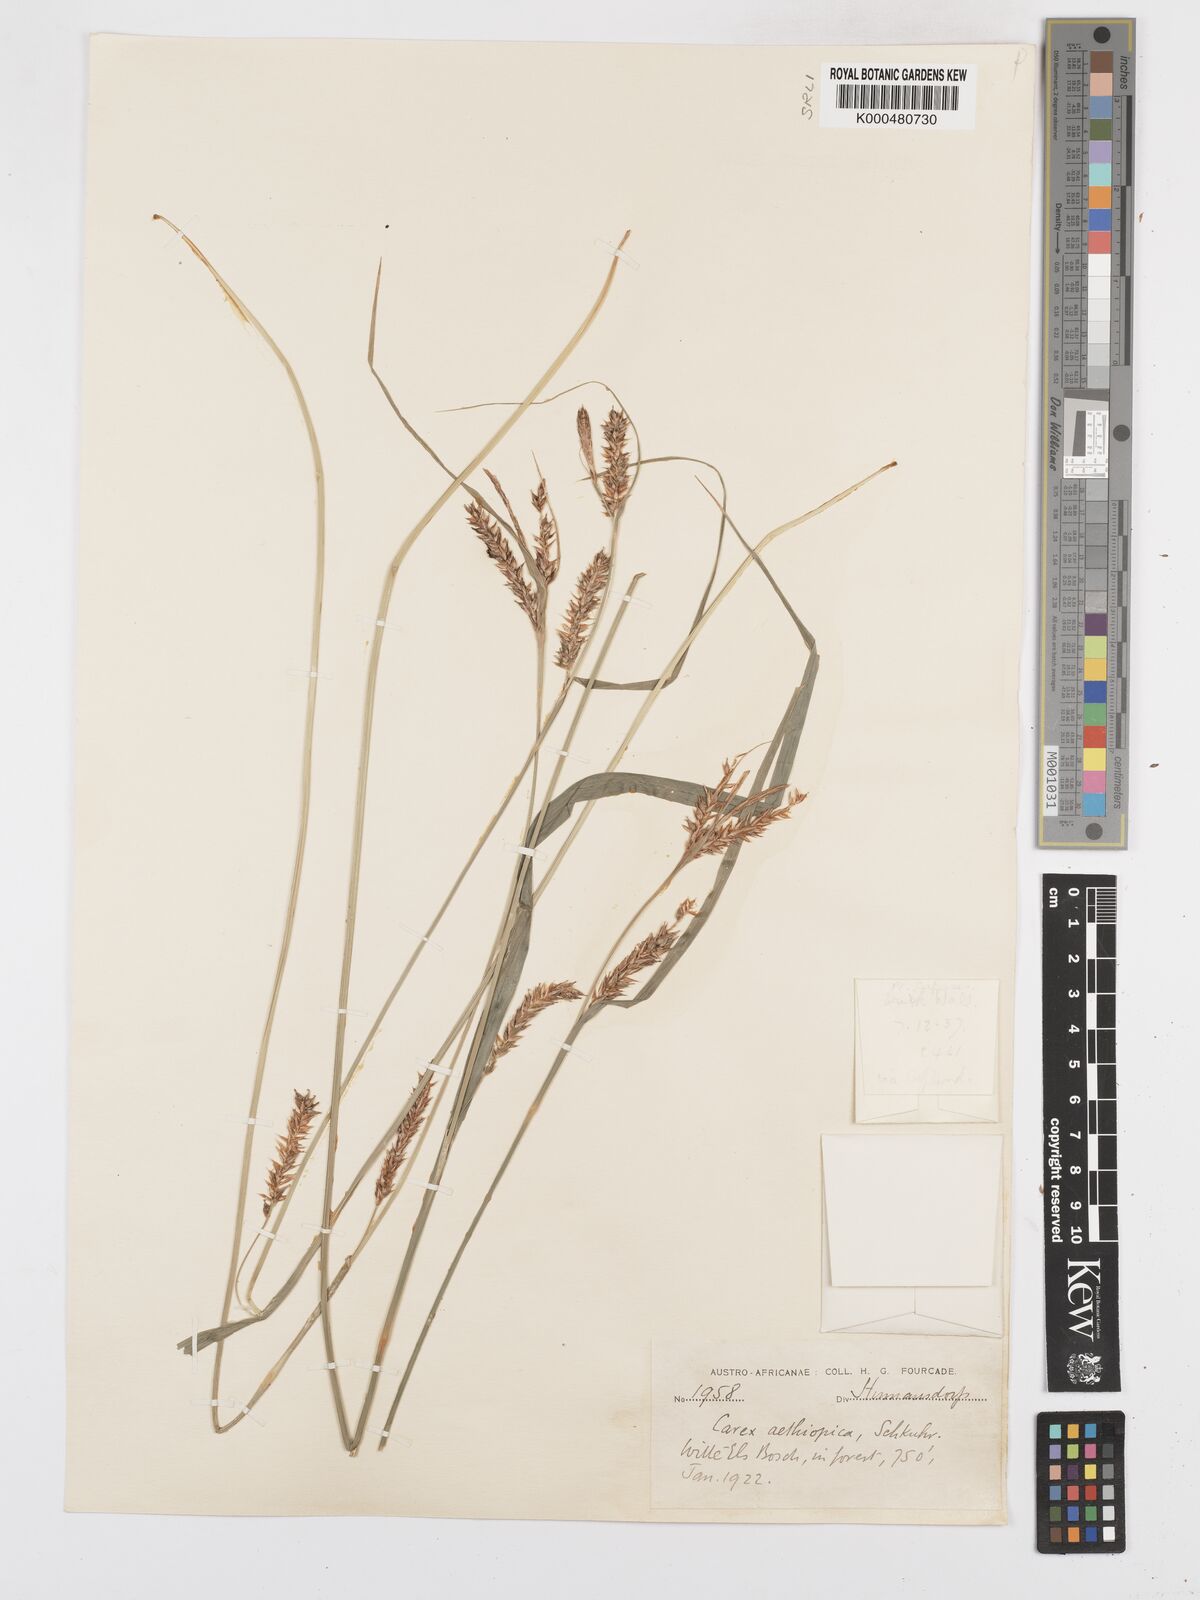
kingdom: Plantae
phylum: Tracheophyta
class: Liliopsida
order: Poales
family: Cyperaceae
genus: Carex
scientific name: Carex aethiopica
